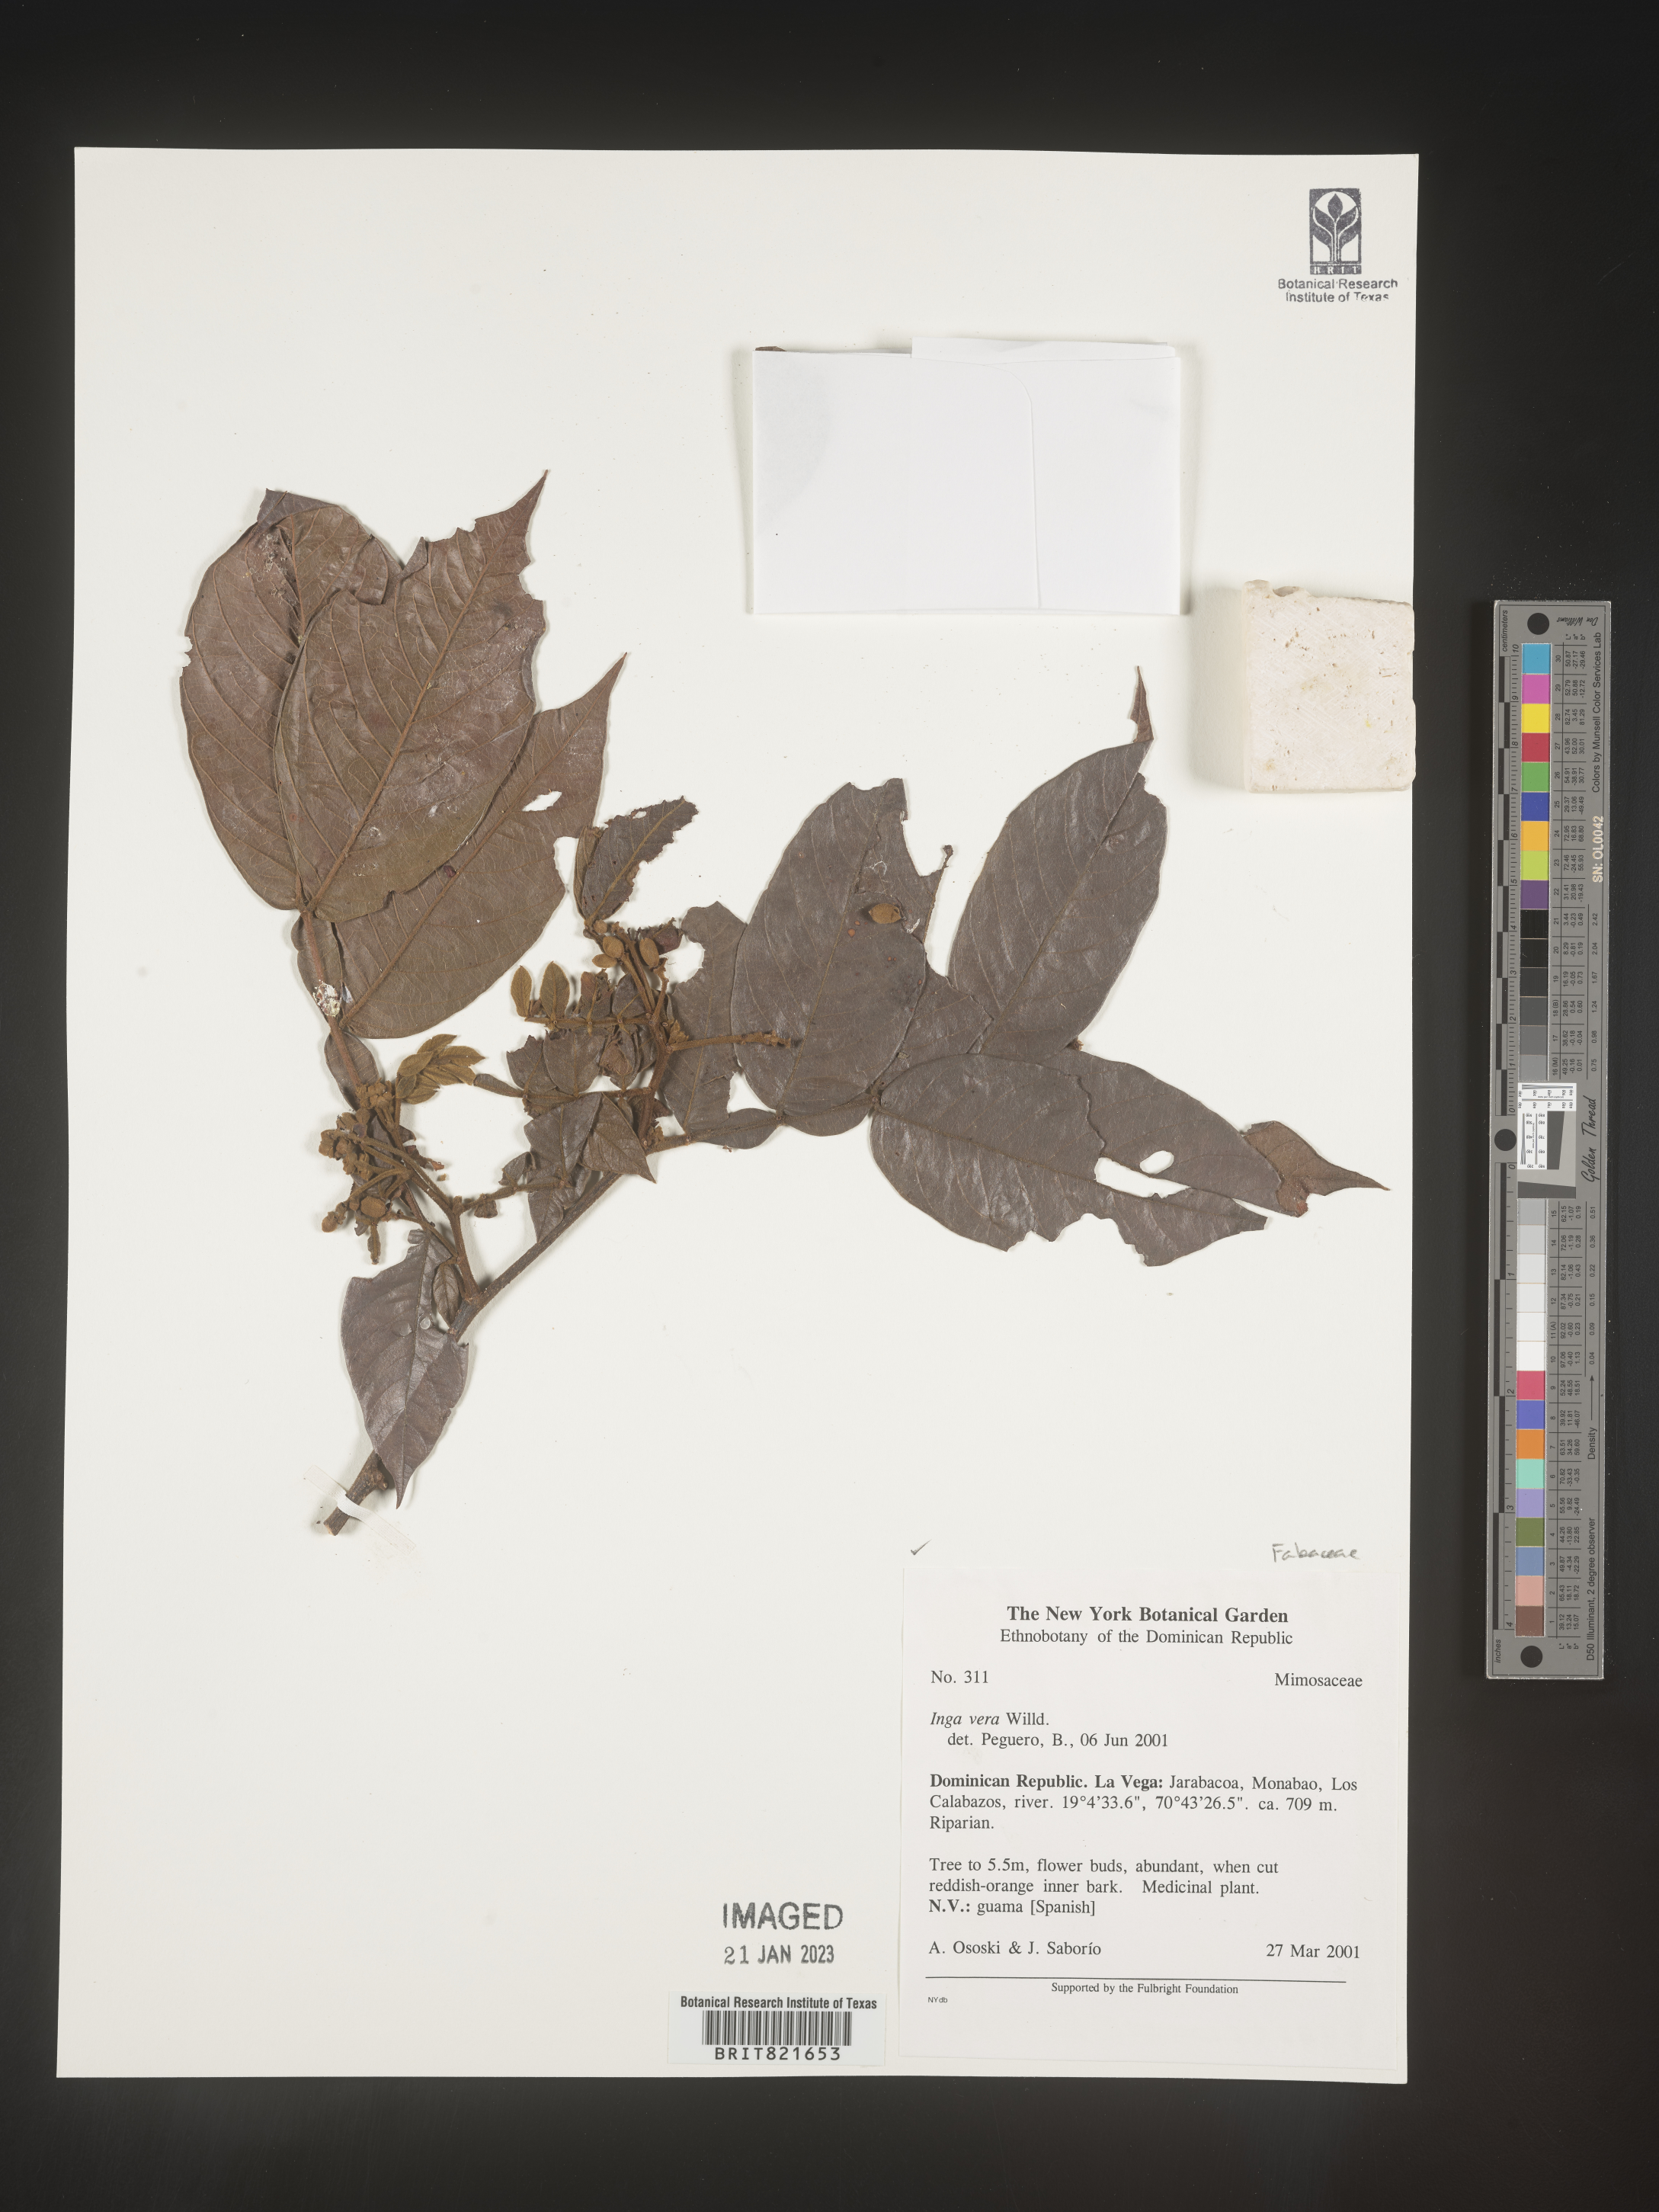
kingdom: Plantae
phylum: Tracheophyta
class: Magnoliopsida
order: Fabales
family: Fabaceae
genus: Inga
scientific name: Inga
